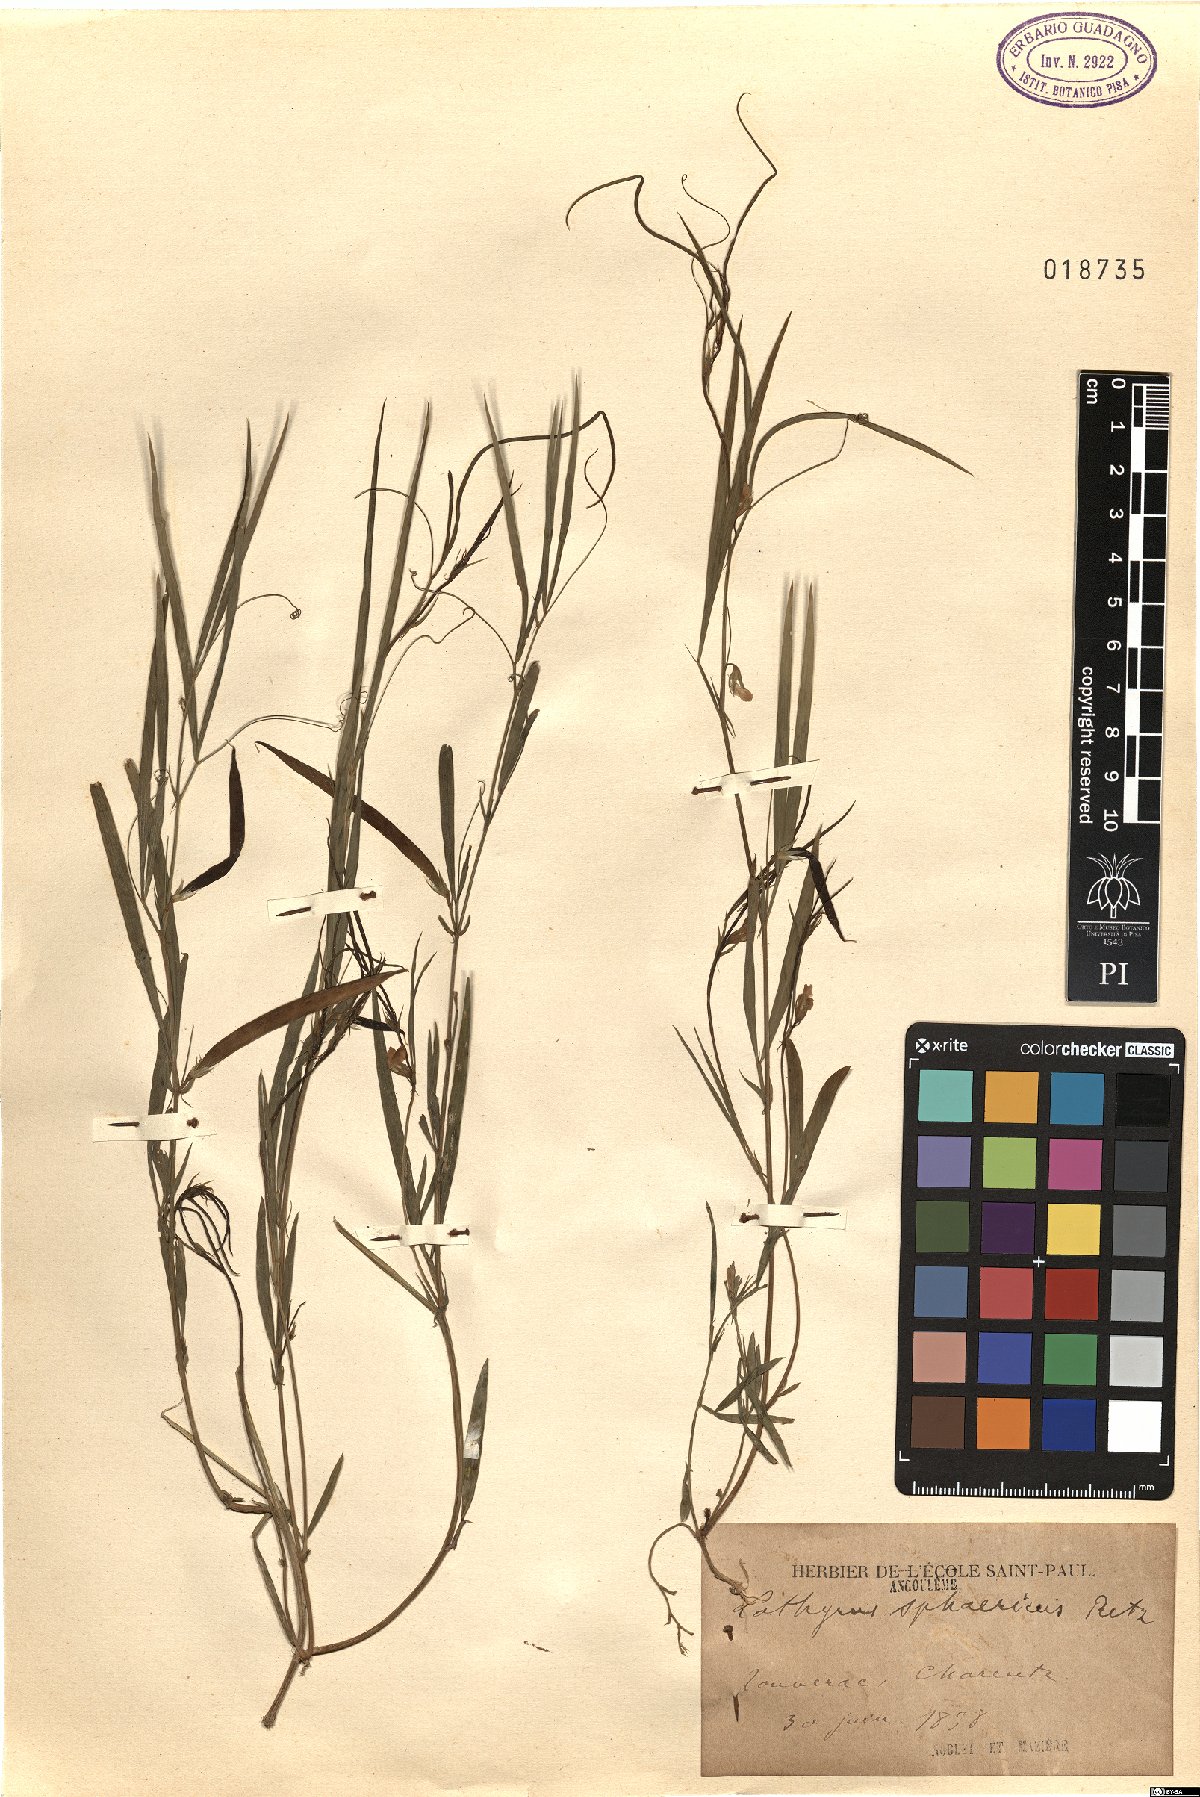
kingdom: Plantae
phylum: Tracheophyta
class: Magnoliopsida
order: Fabales
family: Fabaceae
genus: Lathyrus
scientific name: Lathyrus sphaericus
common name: Grass pea
